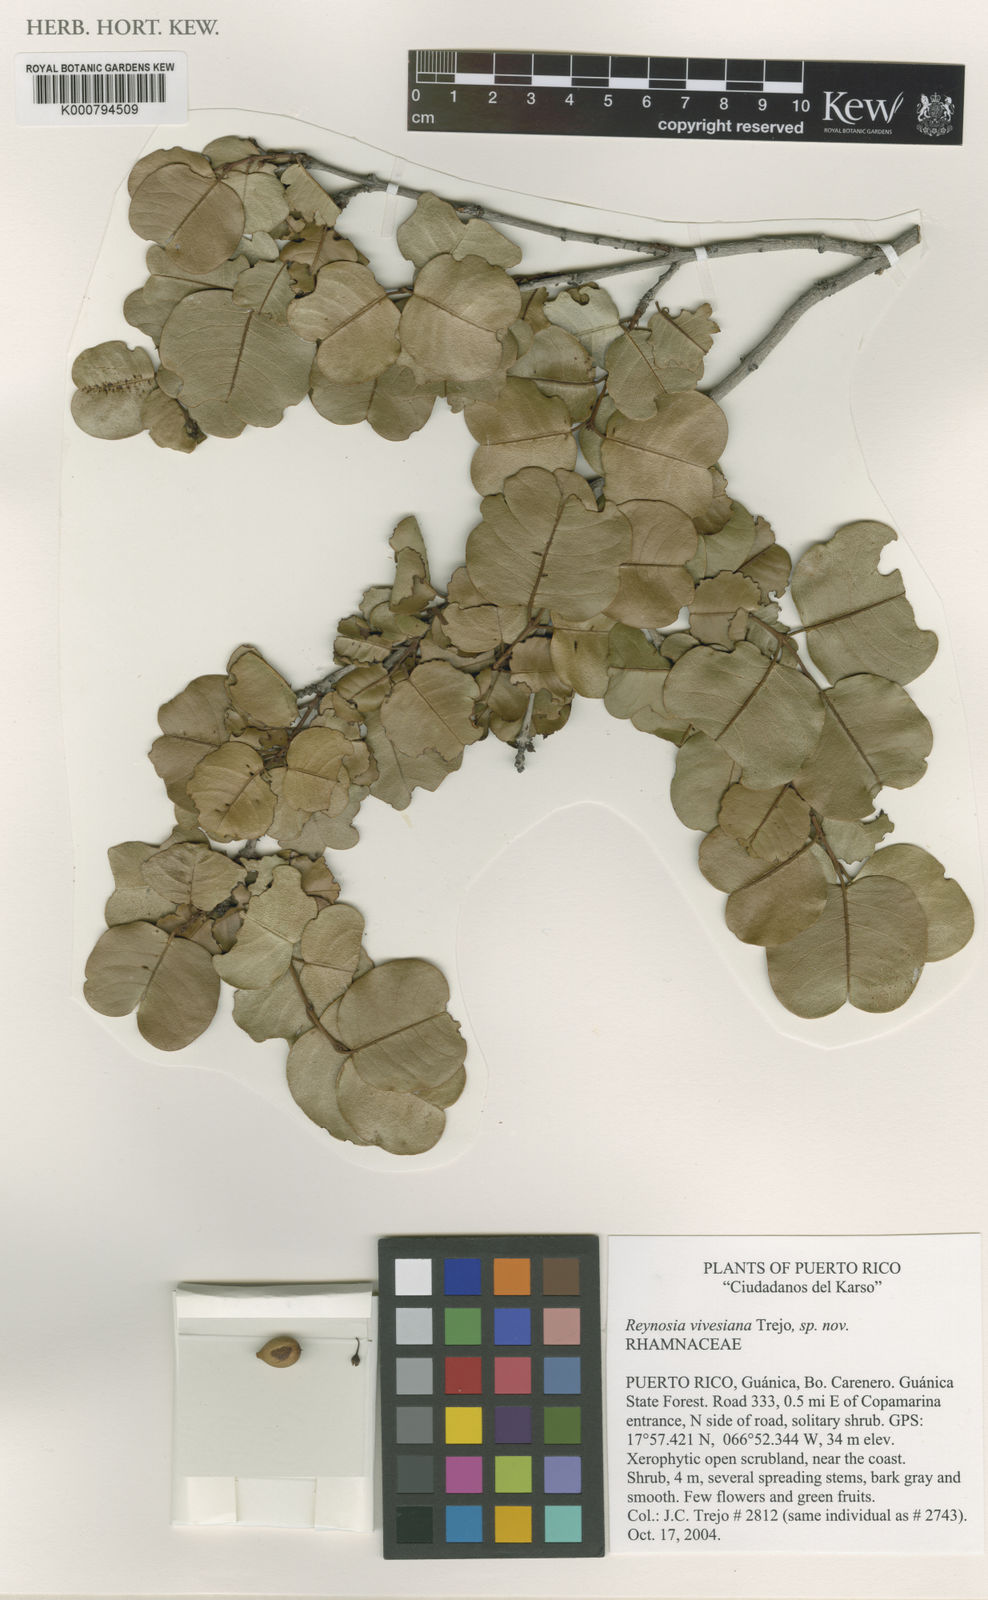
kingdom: Plantae
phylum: Tracheophyta
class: Magnoliopsida
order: Rosales
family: Rhamnaceae
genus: Reynosia
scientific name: Reynosia vivesiana
